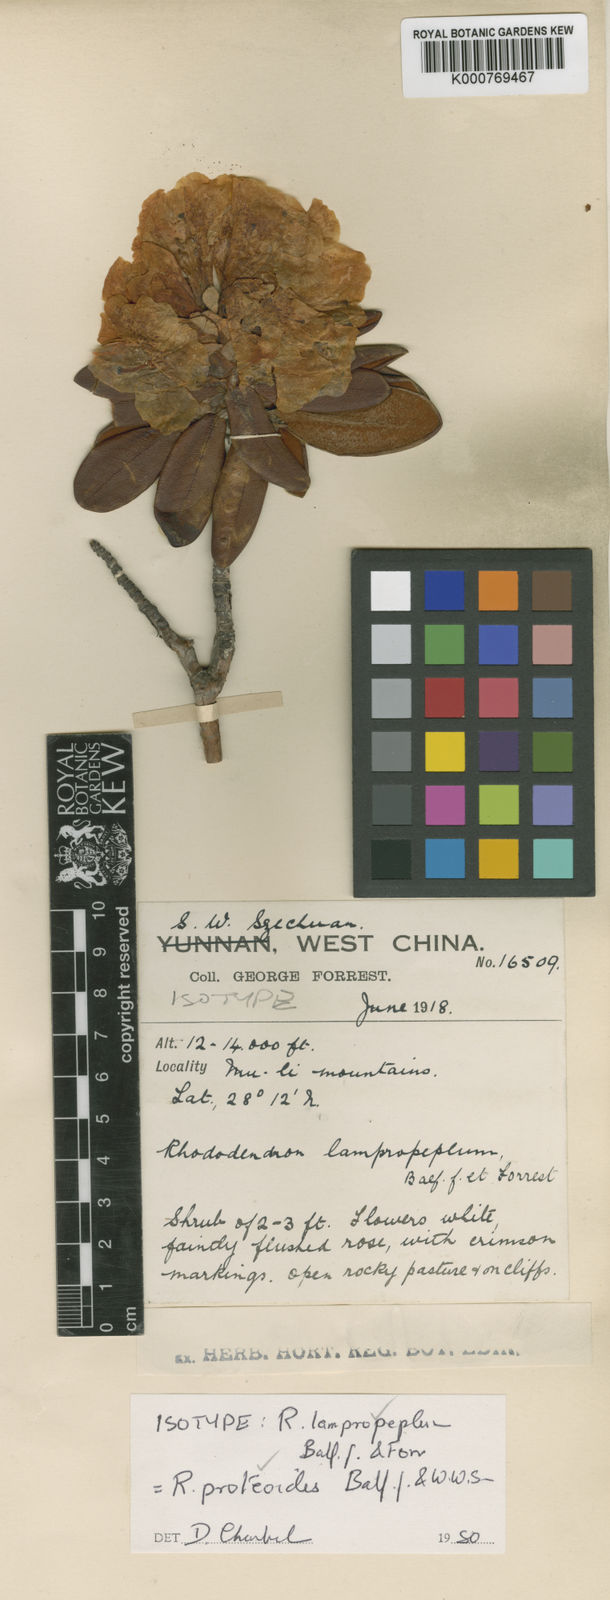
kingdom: Plantae
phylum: Tracheophyta
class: Magnoliopsida
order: Ericales
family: Ericaceae
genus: Rhododendron
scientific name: Rhododendron proteoides
